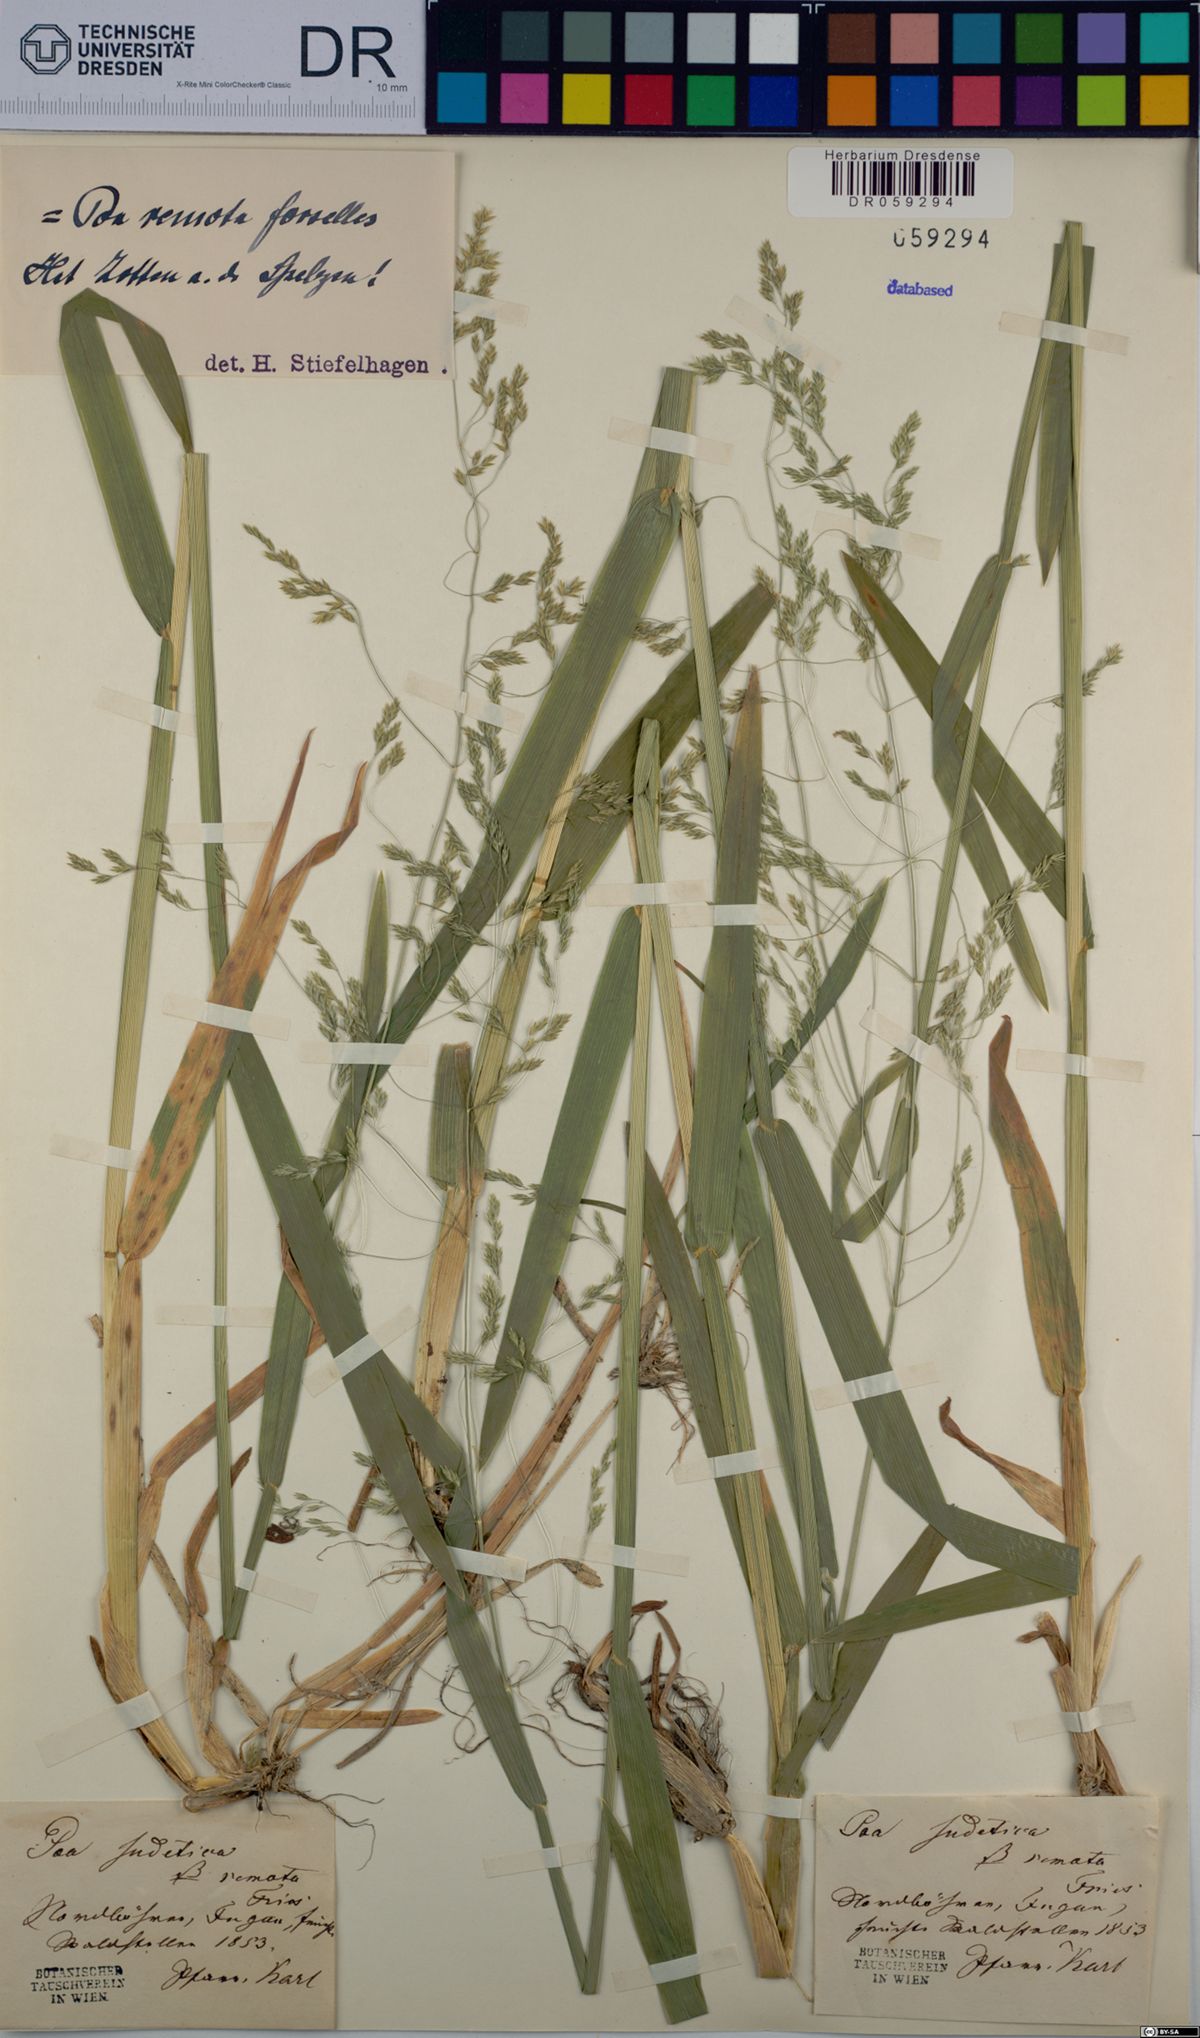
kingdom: Plantae
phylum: Tracheophyta
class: Liliopsida
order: Poales
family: Poaceae
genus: Poa
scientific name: Poa remota
